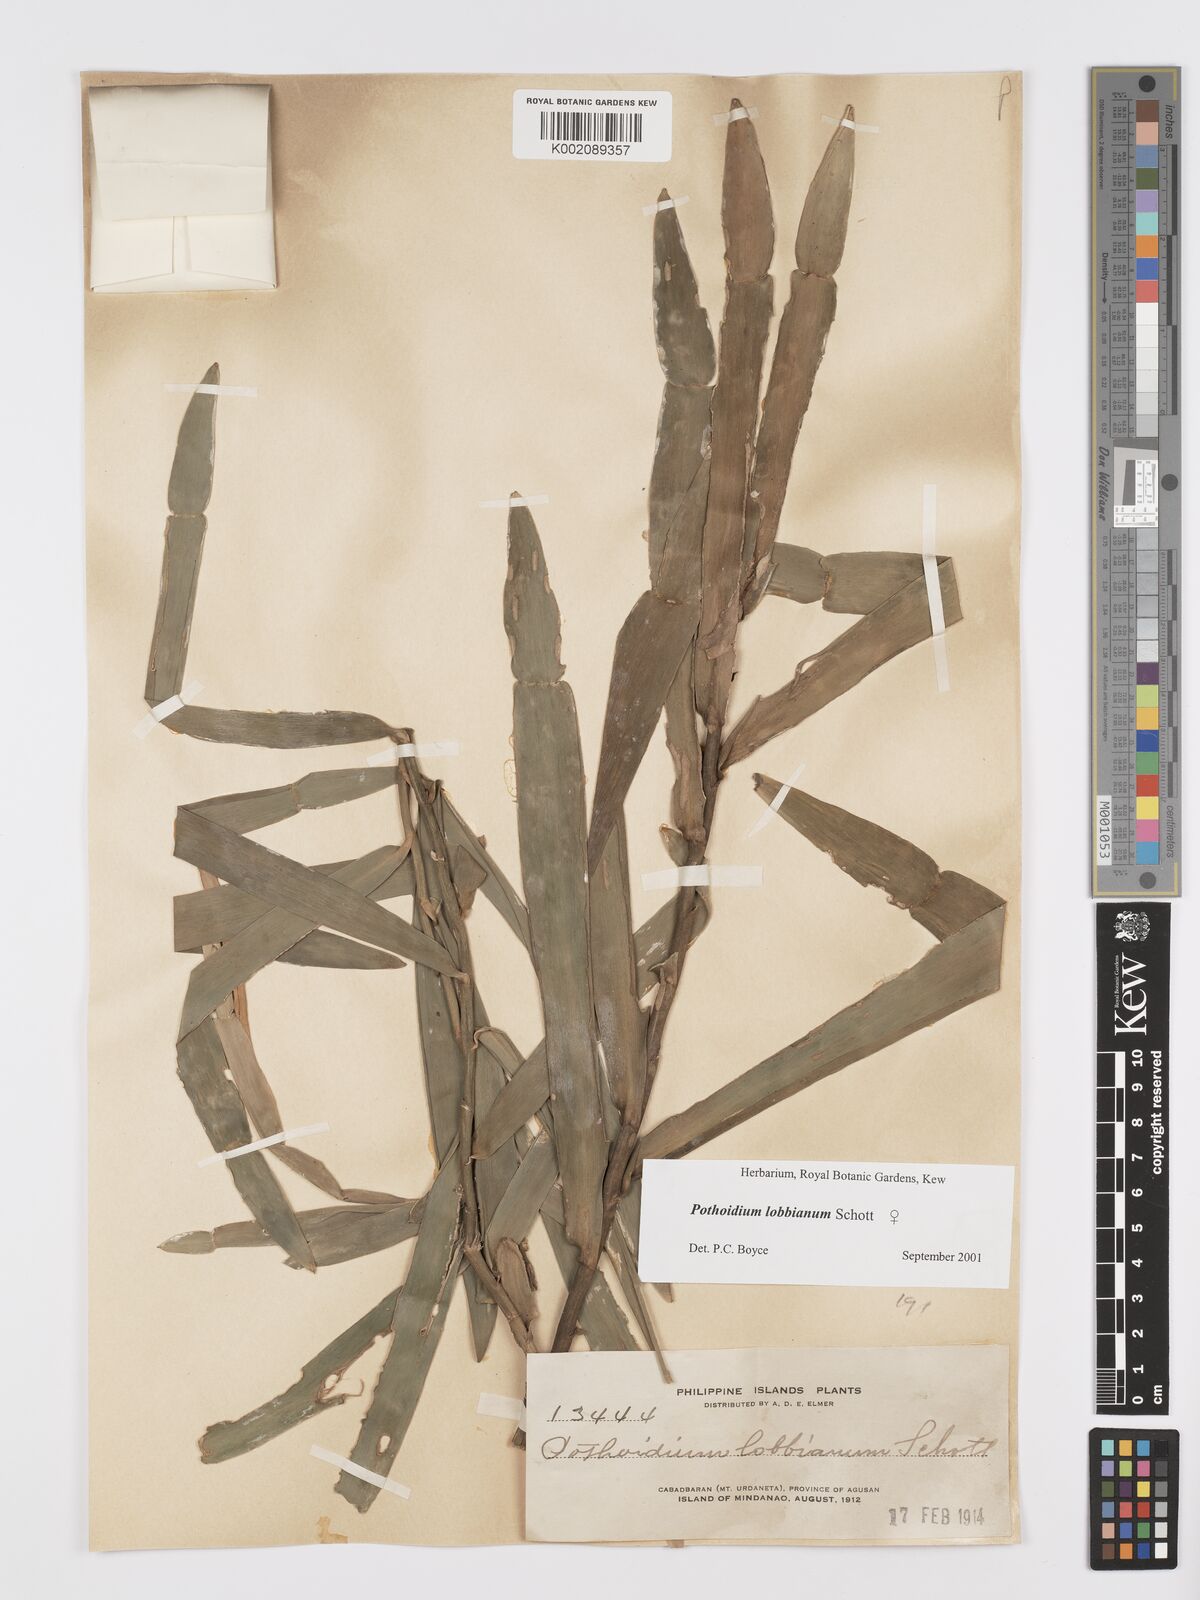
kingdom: Plantae
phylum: Tracheophyta
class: Liliopsida
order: Alismatales
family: Araceae
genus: Pothoidium
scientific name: Pothoidium lobbianum
